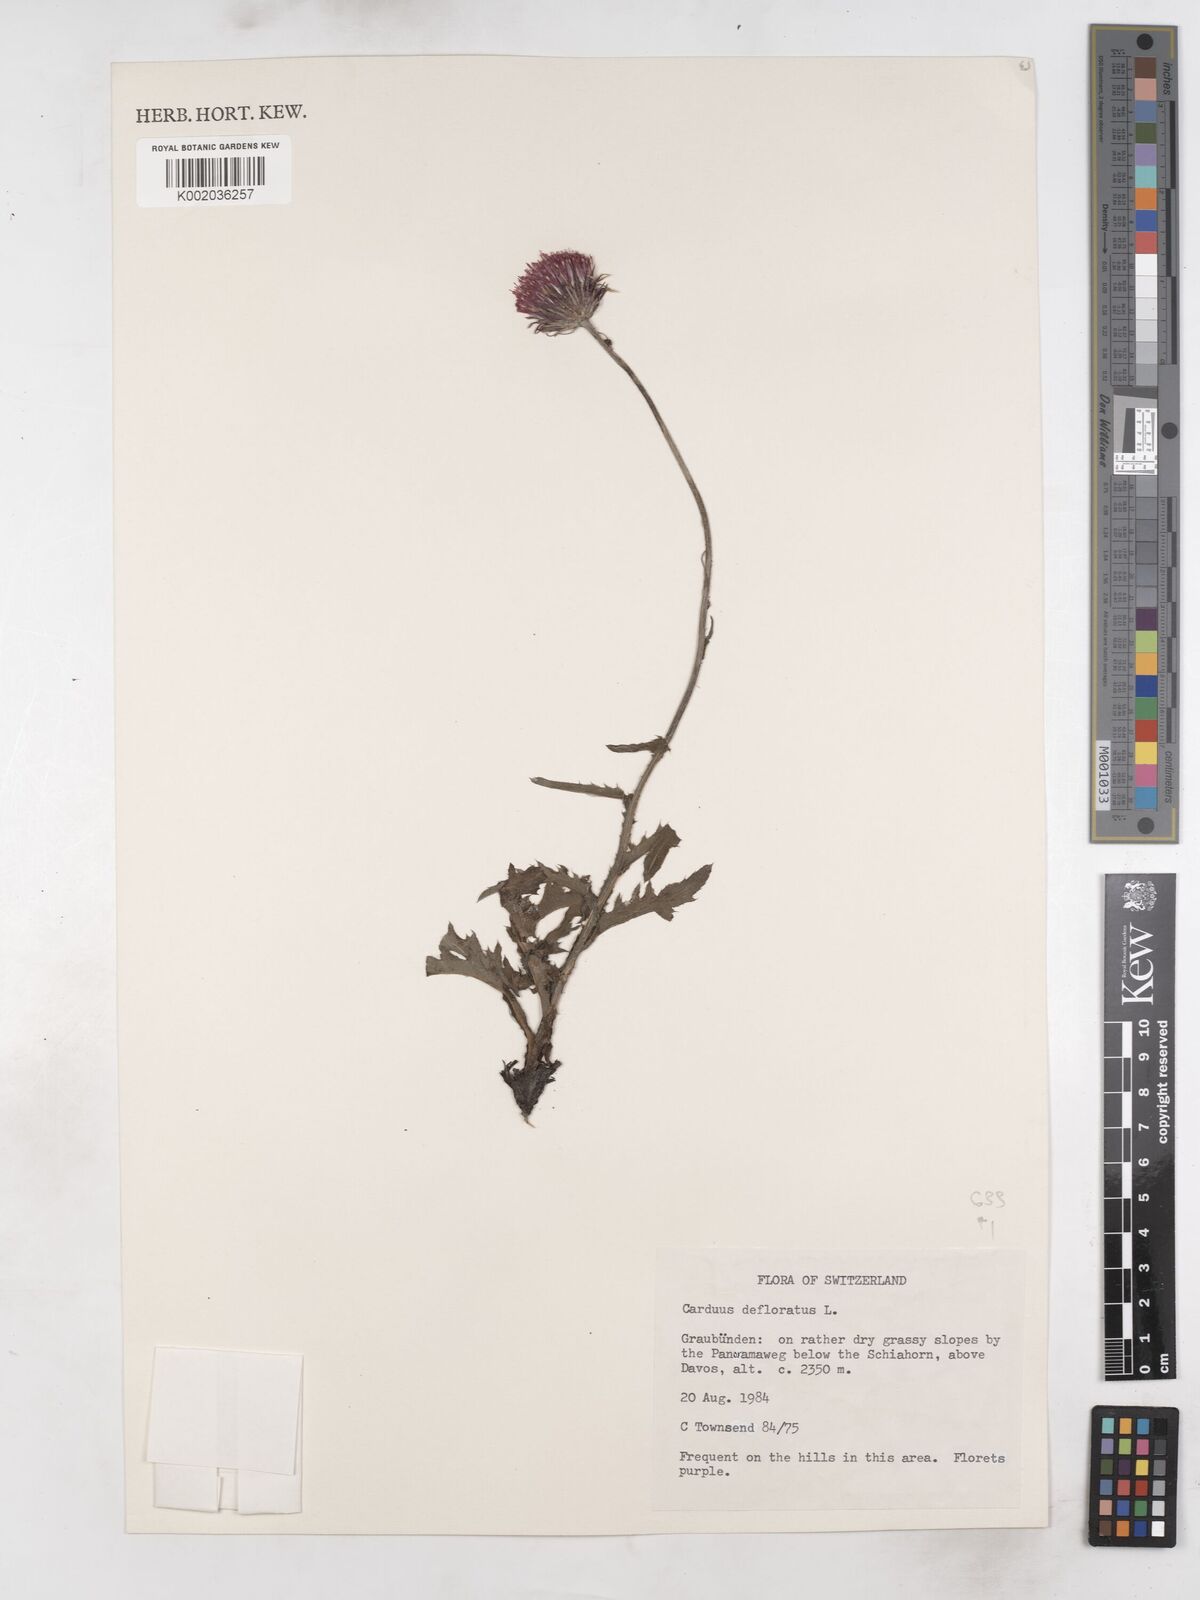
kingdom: Plantae
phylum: Tracheophyta
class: Magnoliopsida
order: Asterales
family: Asteraceae
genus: Carduus
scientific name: Carduus defloratus
